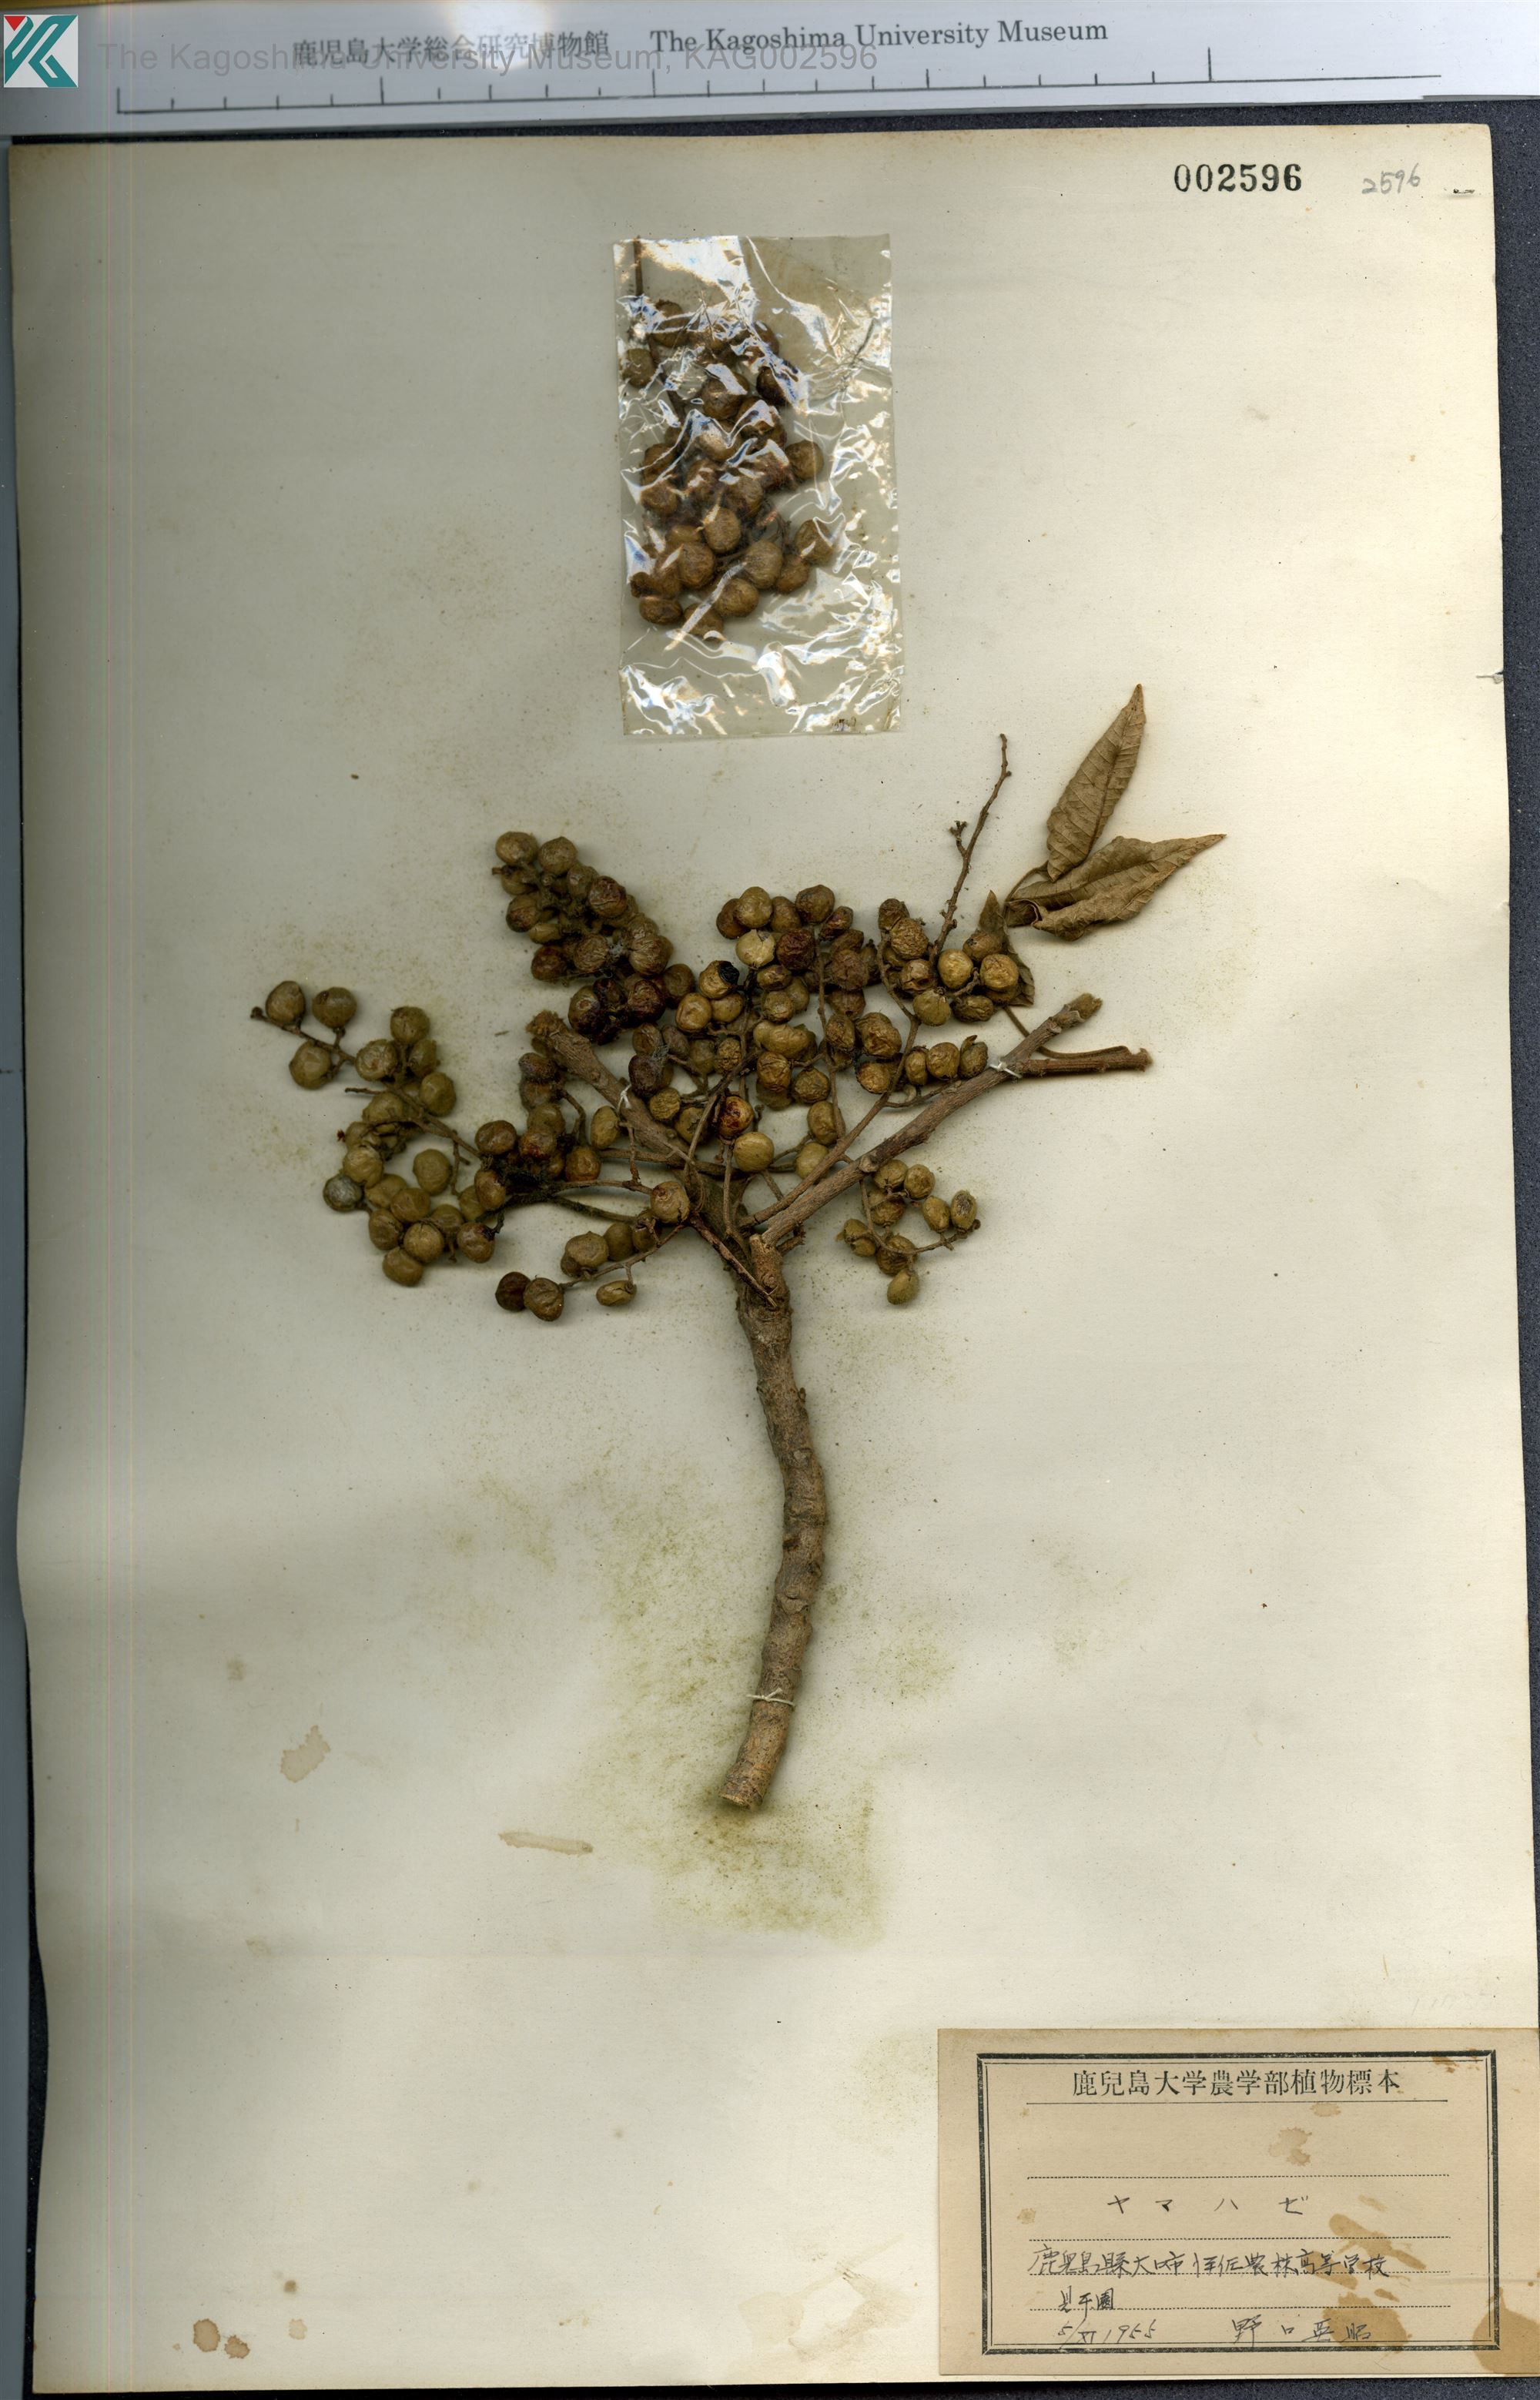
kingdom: Plantae
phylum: Tracheophyta
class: Magnoliopsida
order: Sapindales
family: Anacardiaceae
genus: Toxicodendron
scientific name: Toxicodendron sylvestre
